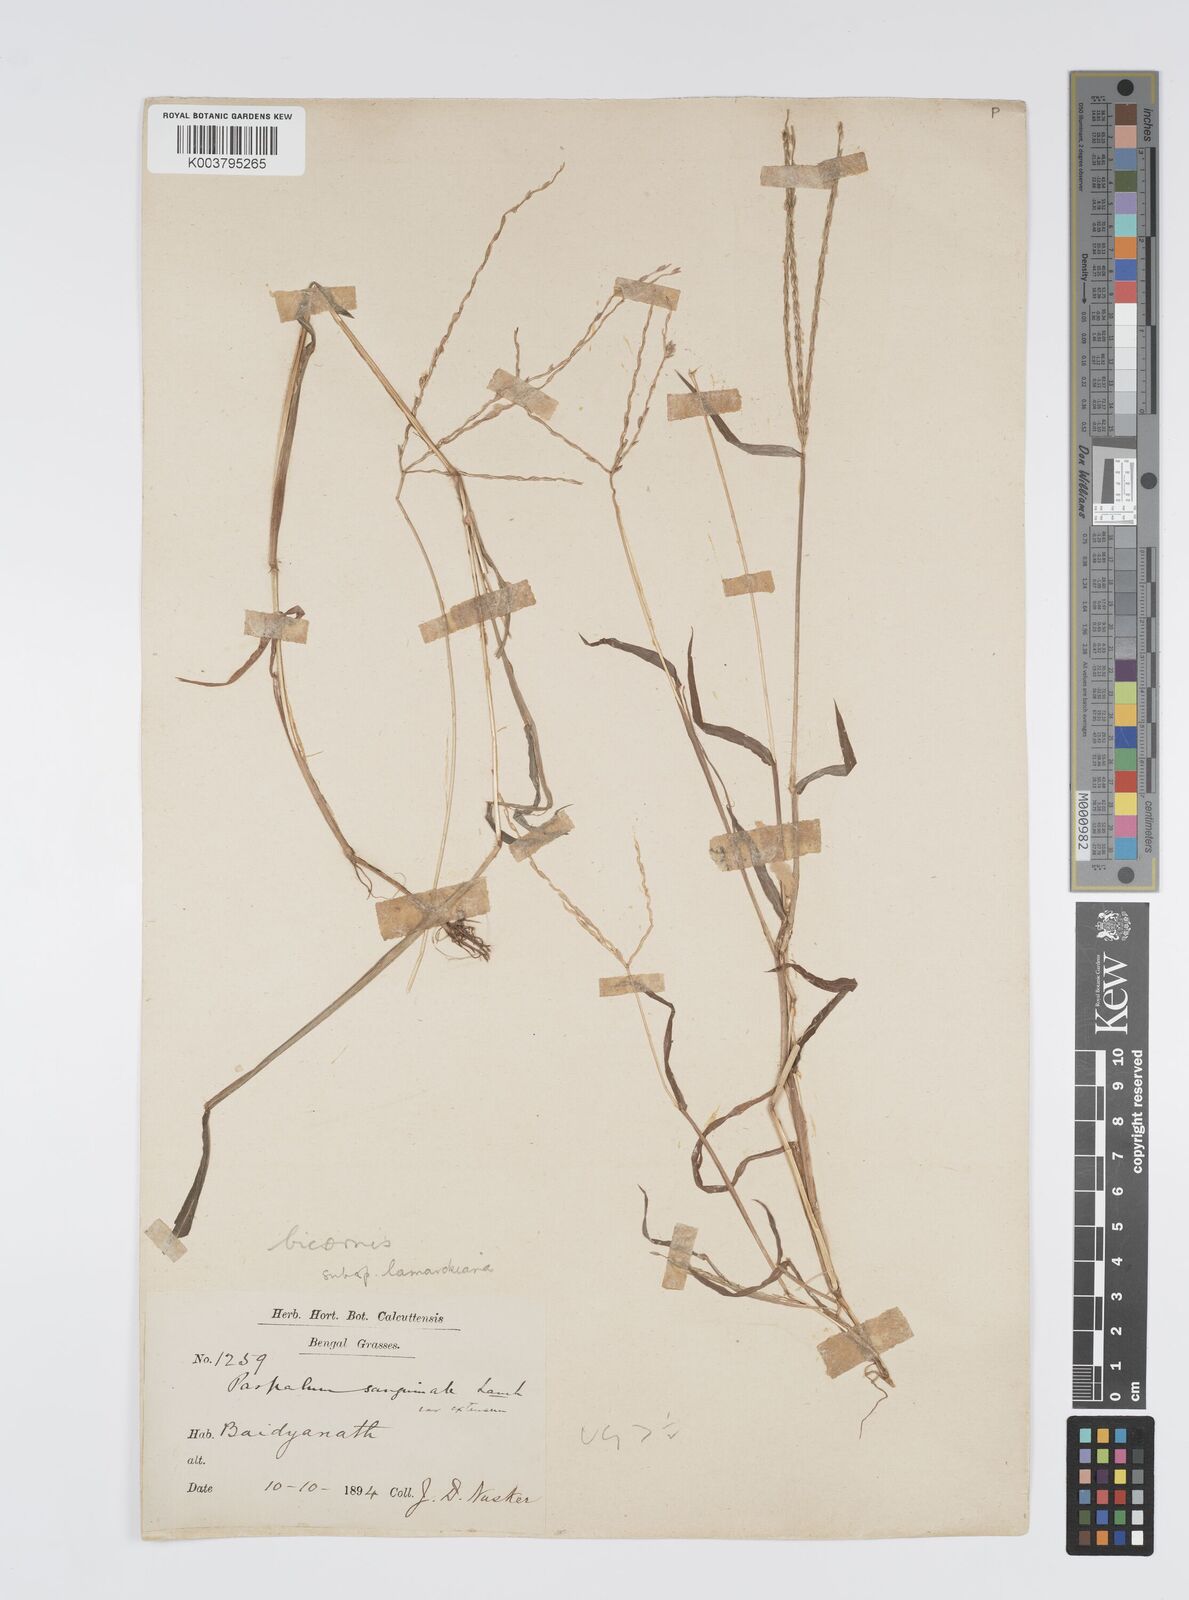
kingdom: Plantae
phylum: Tracheophyta
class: Liliopsida
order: Poales
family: Poaceae
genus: Digitaria
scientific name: Digitaria ciliaris
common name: Tropical finger-grass
